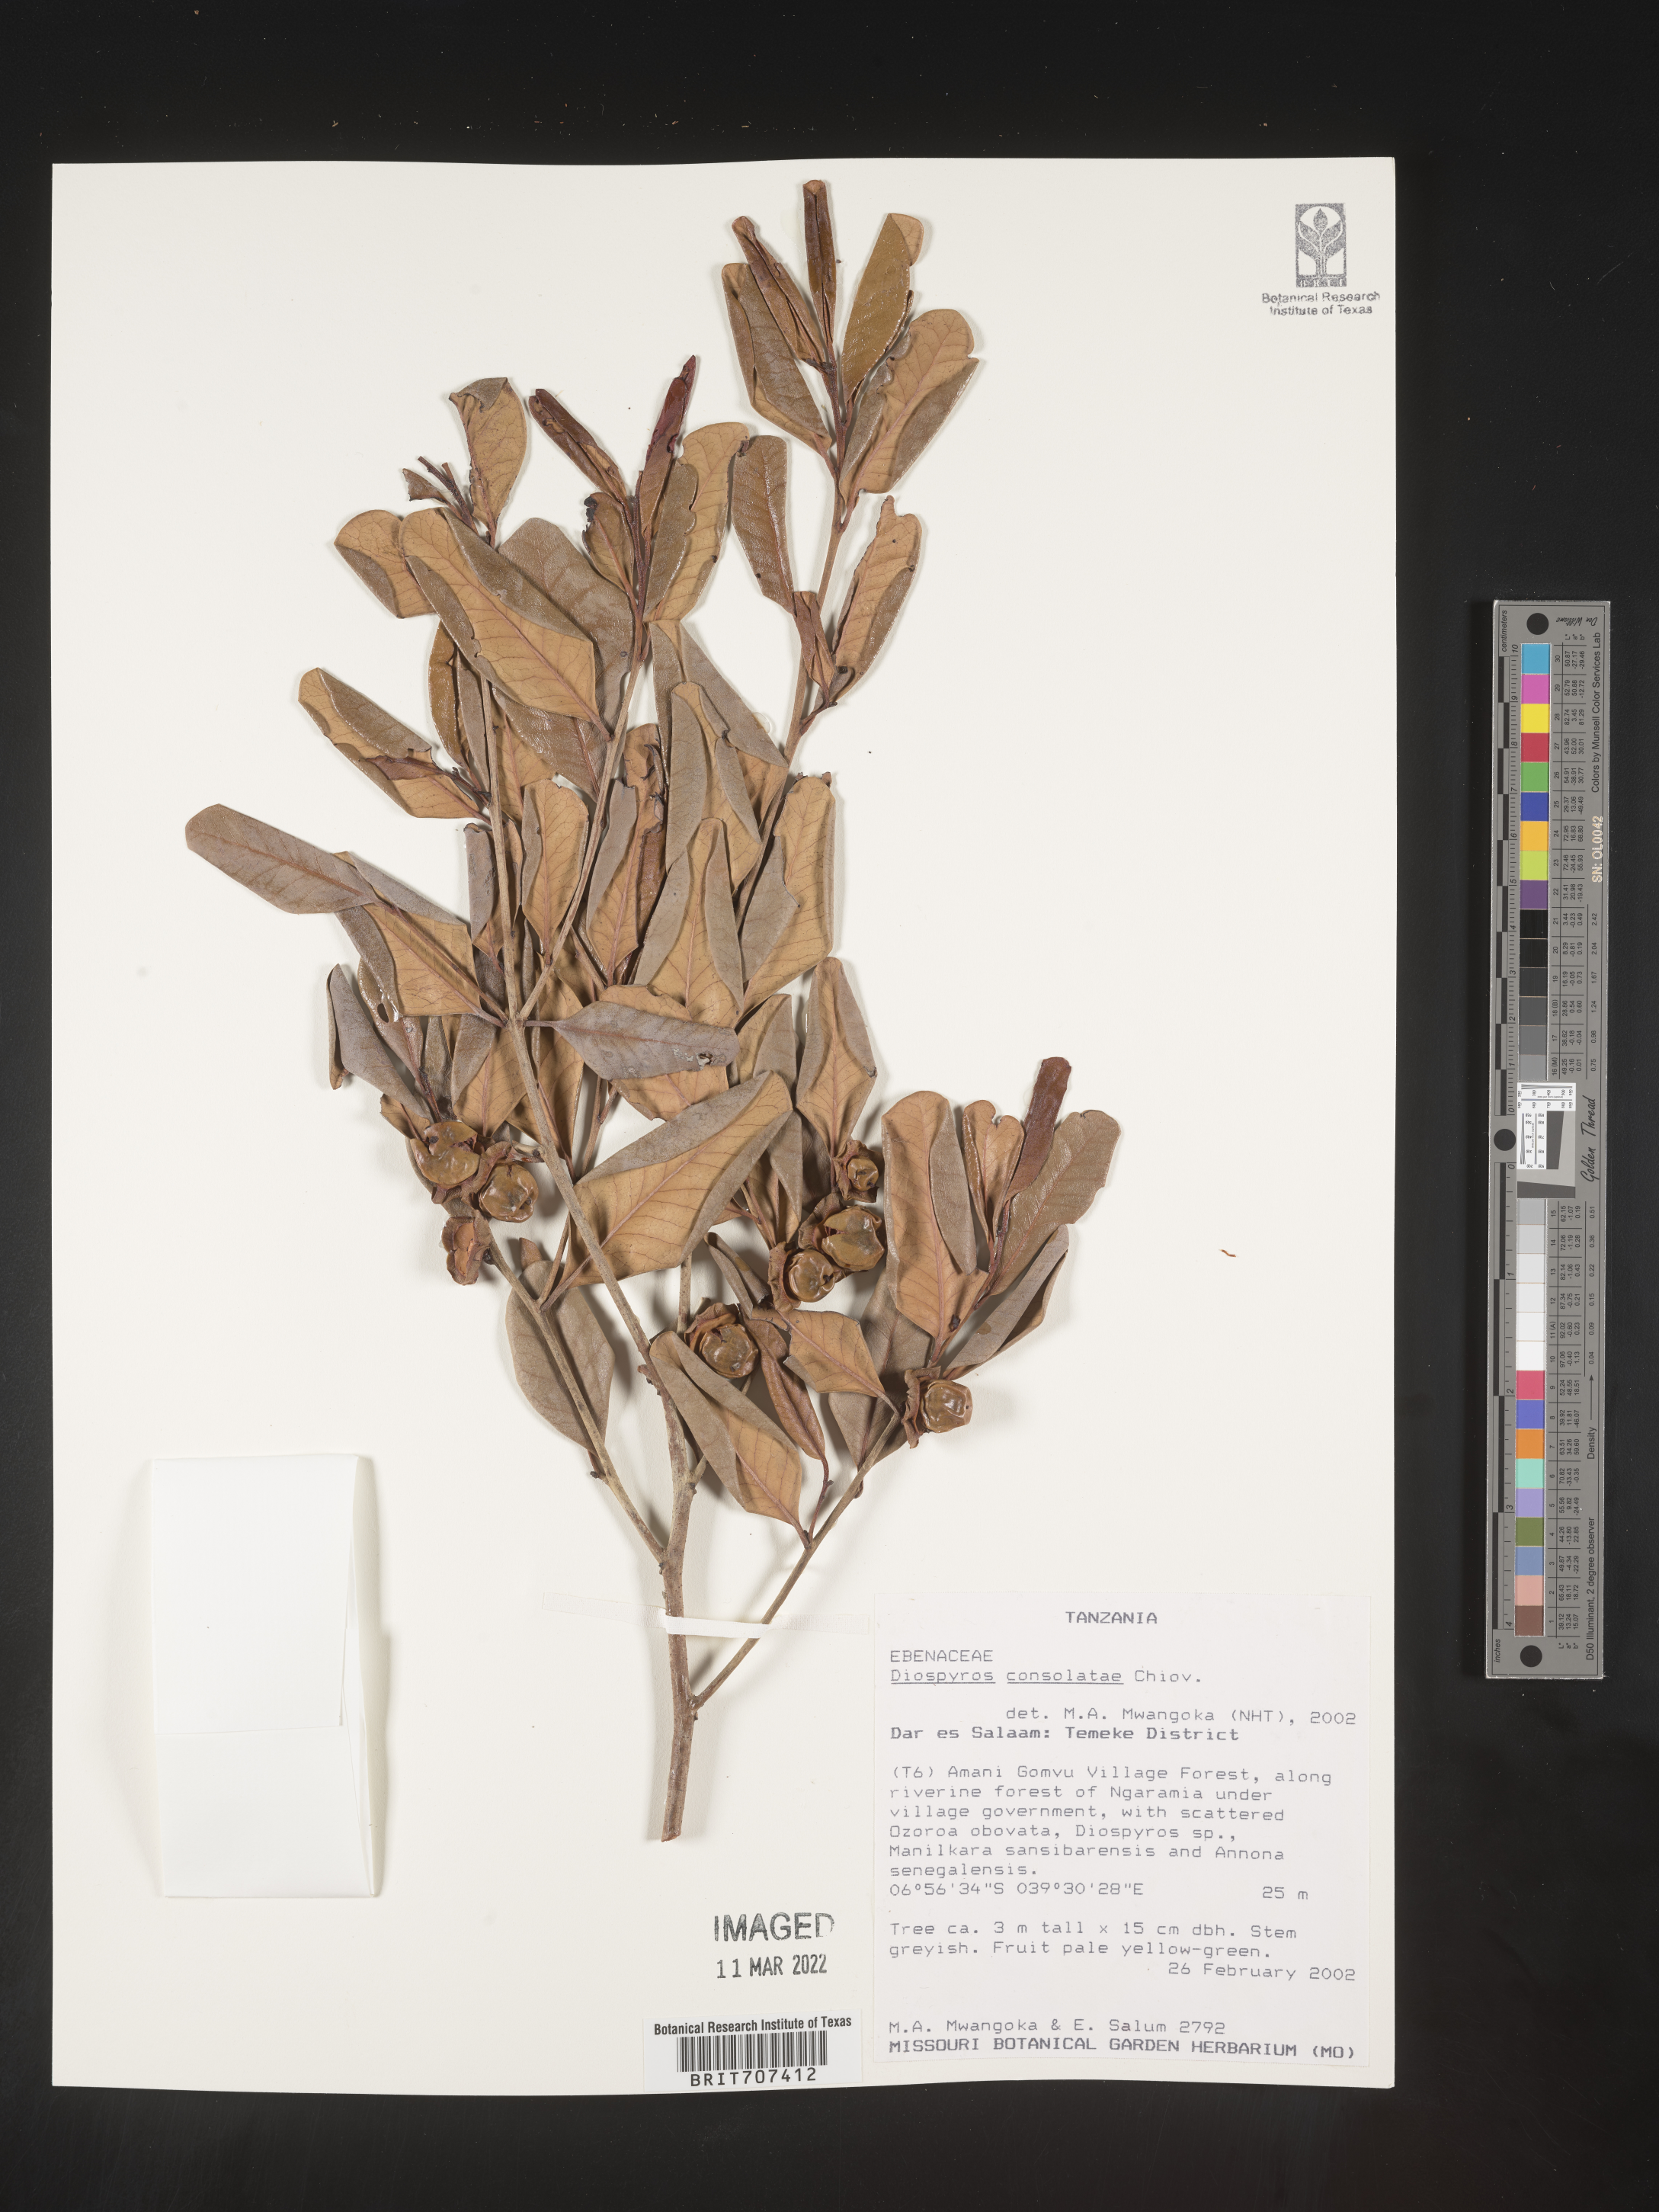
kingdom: Plantae
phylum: Tracheophyta
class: Magnoliopsida
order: Ericales
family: Ebenaceae
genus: Diospyros
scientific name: Diospyros
